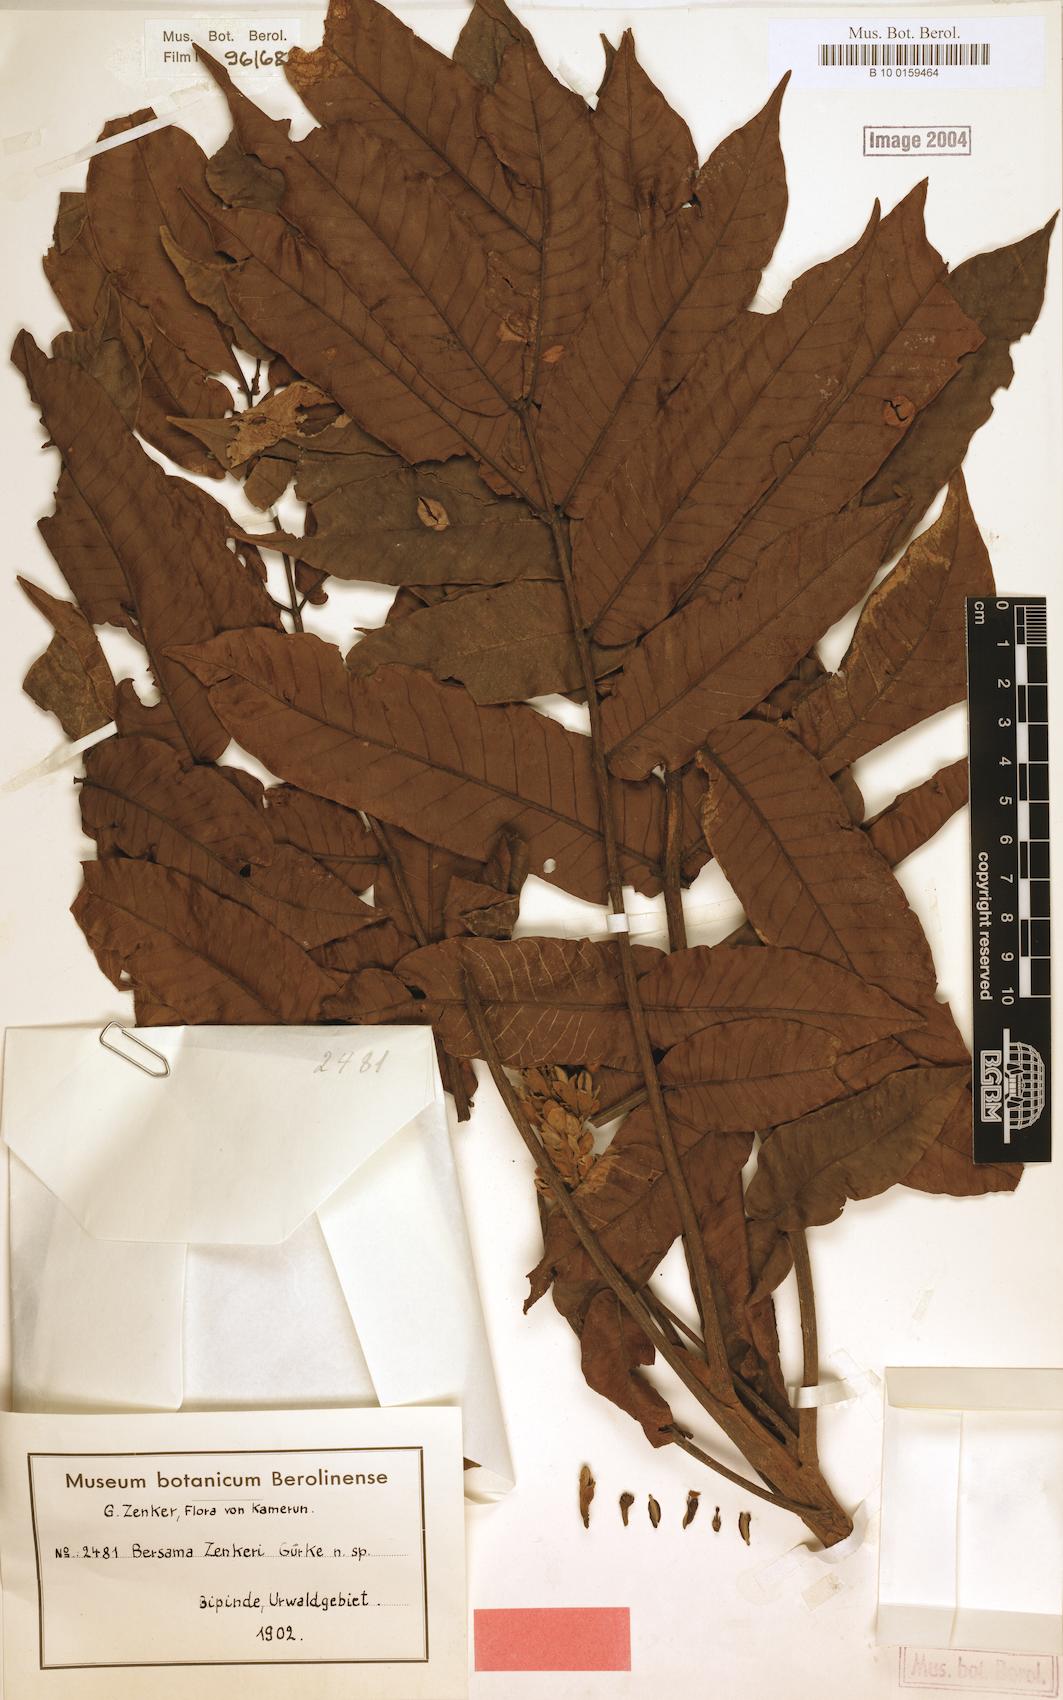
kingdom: Plantae
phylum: Tracheophyta
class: Magnoliopsida
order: Geraniales
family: Melianthaceae
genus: Bersama
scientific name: Bersama
